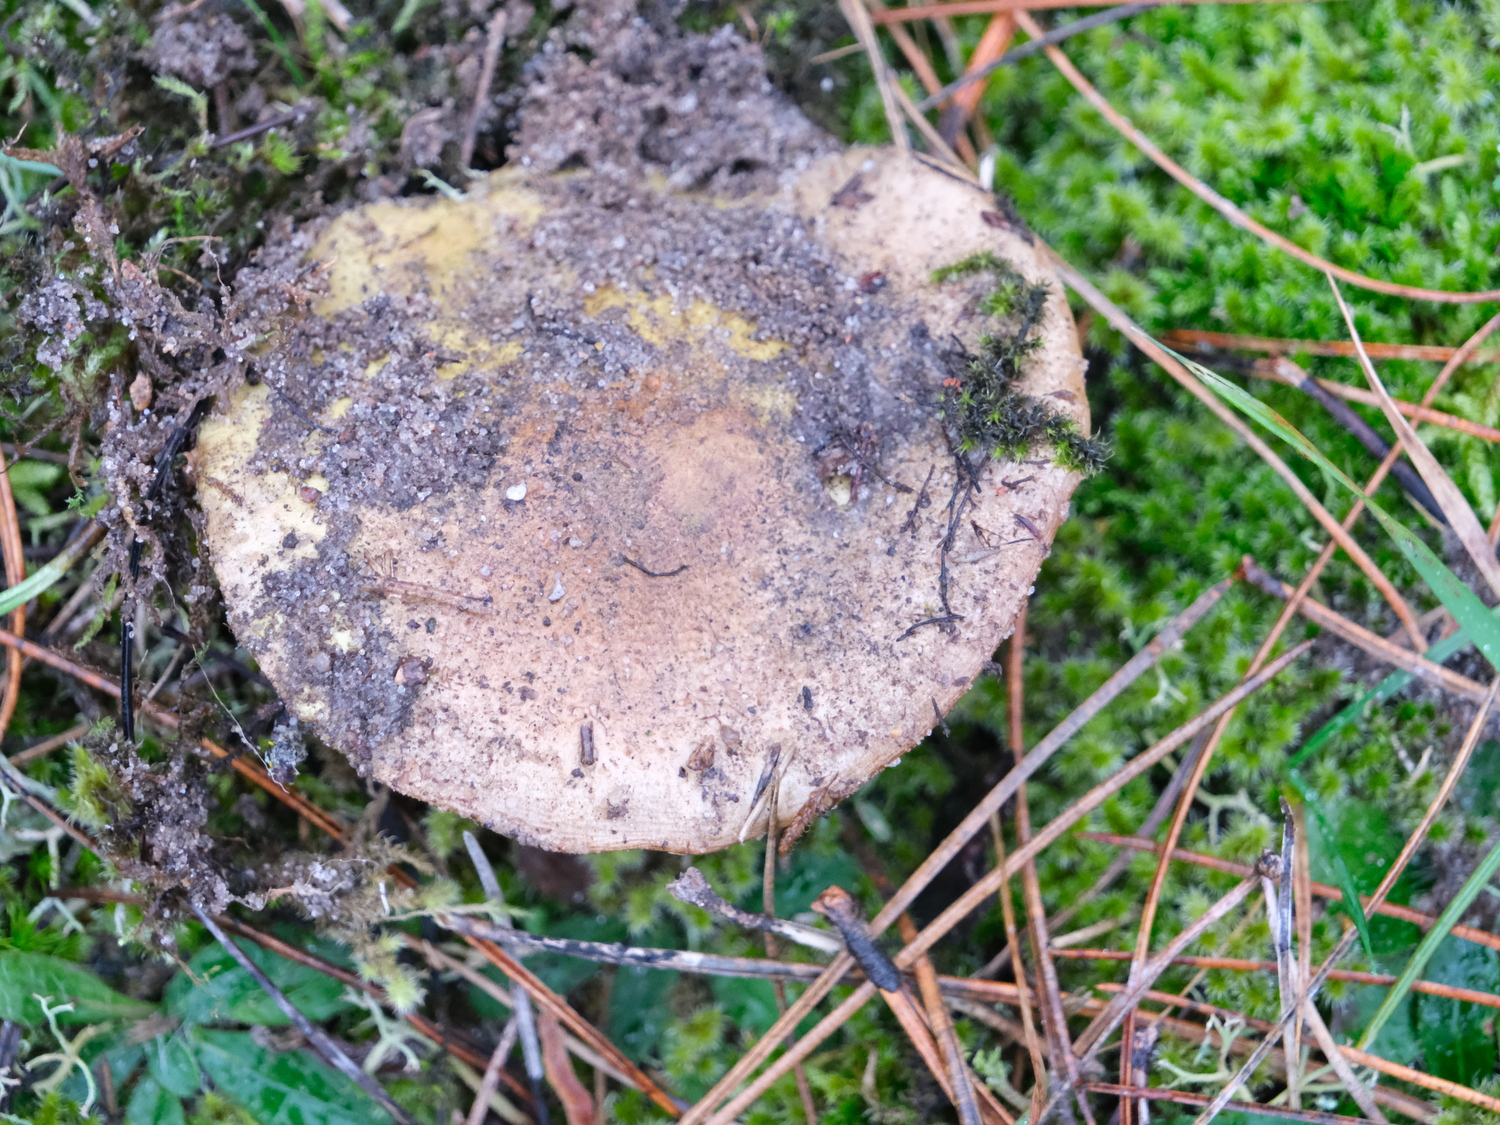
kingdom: Fungi
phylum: Basidiomycota
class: Agaricomycetes
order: Agaricales
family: Tricholomataceae
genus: Tricholoma
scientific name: Tricholoma equestre
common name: ægte ridderhat
